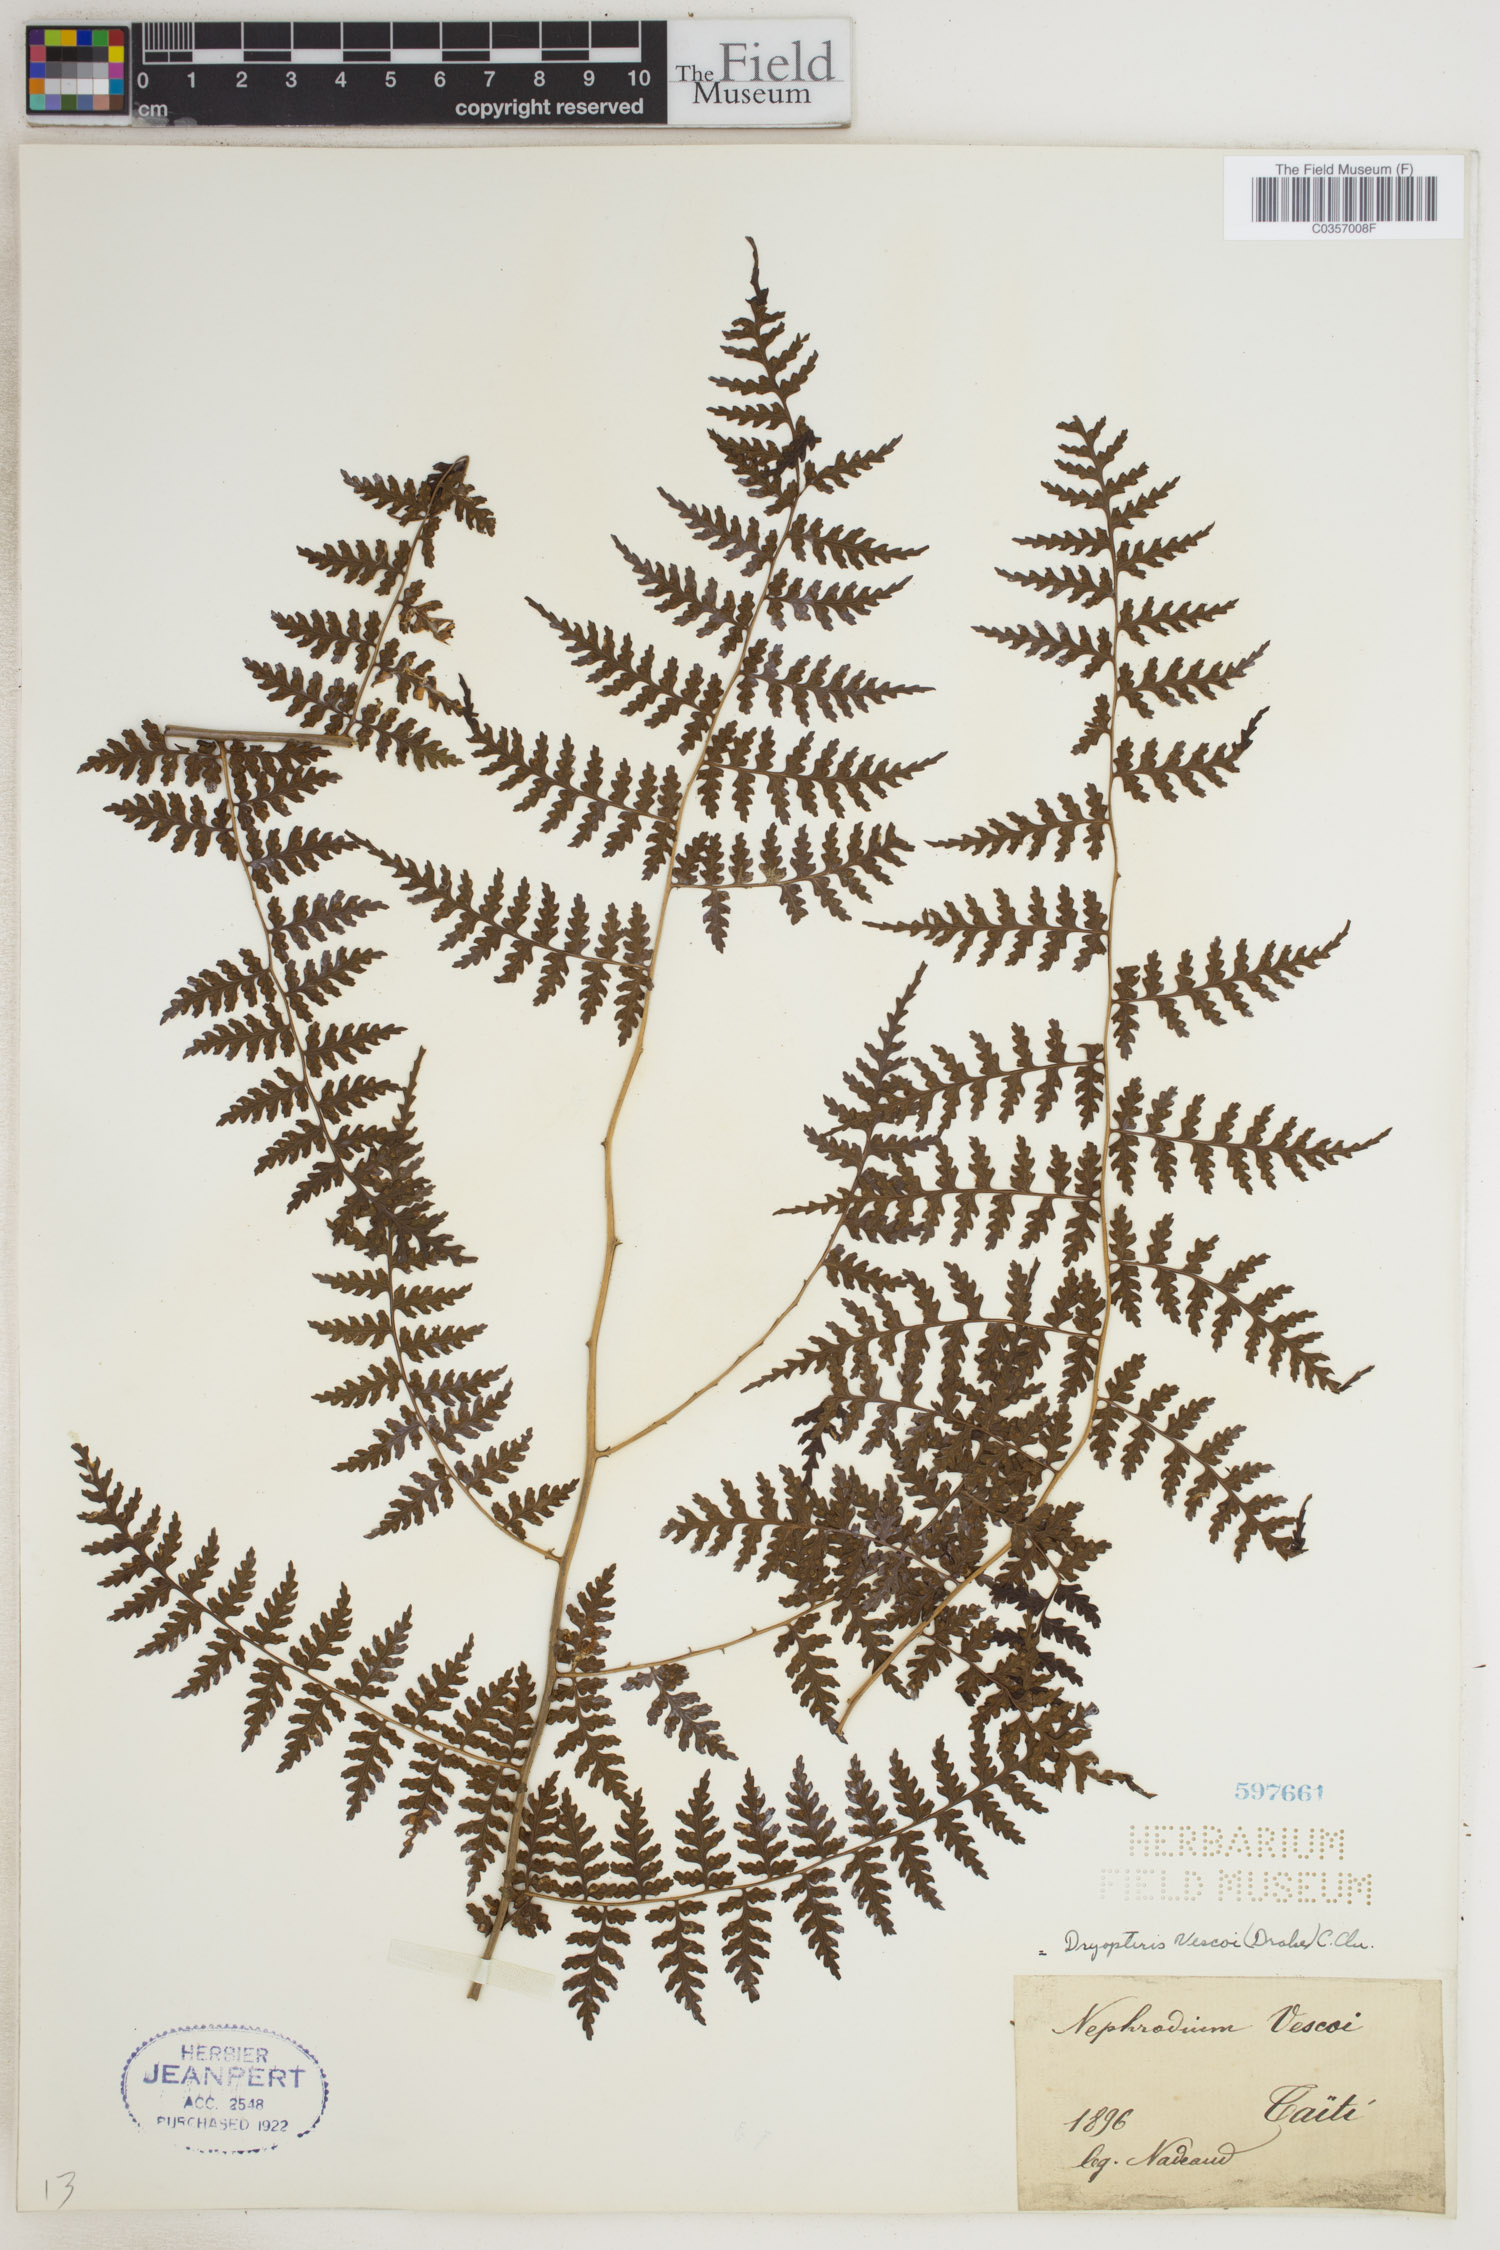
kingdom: Plantae
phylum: Tracheophyta
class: Polypodiopsida
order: Polypodiales
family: Dryopteridaceae
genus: Dryopteris
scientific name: Dryopteris vescoi
